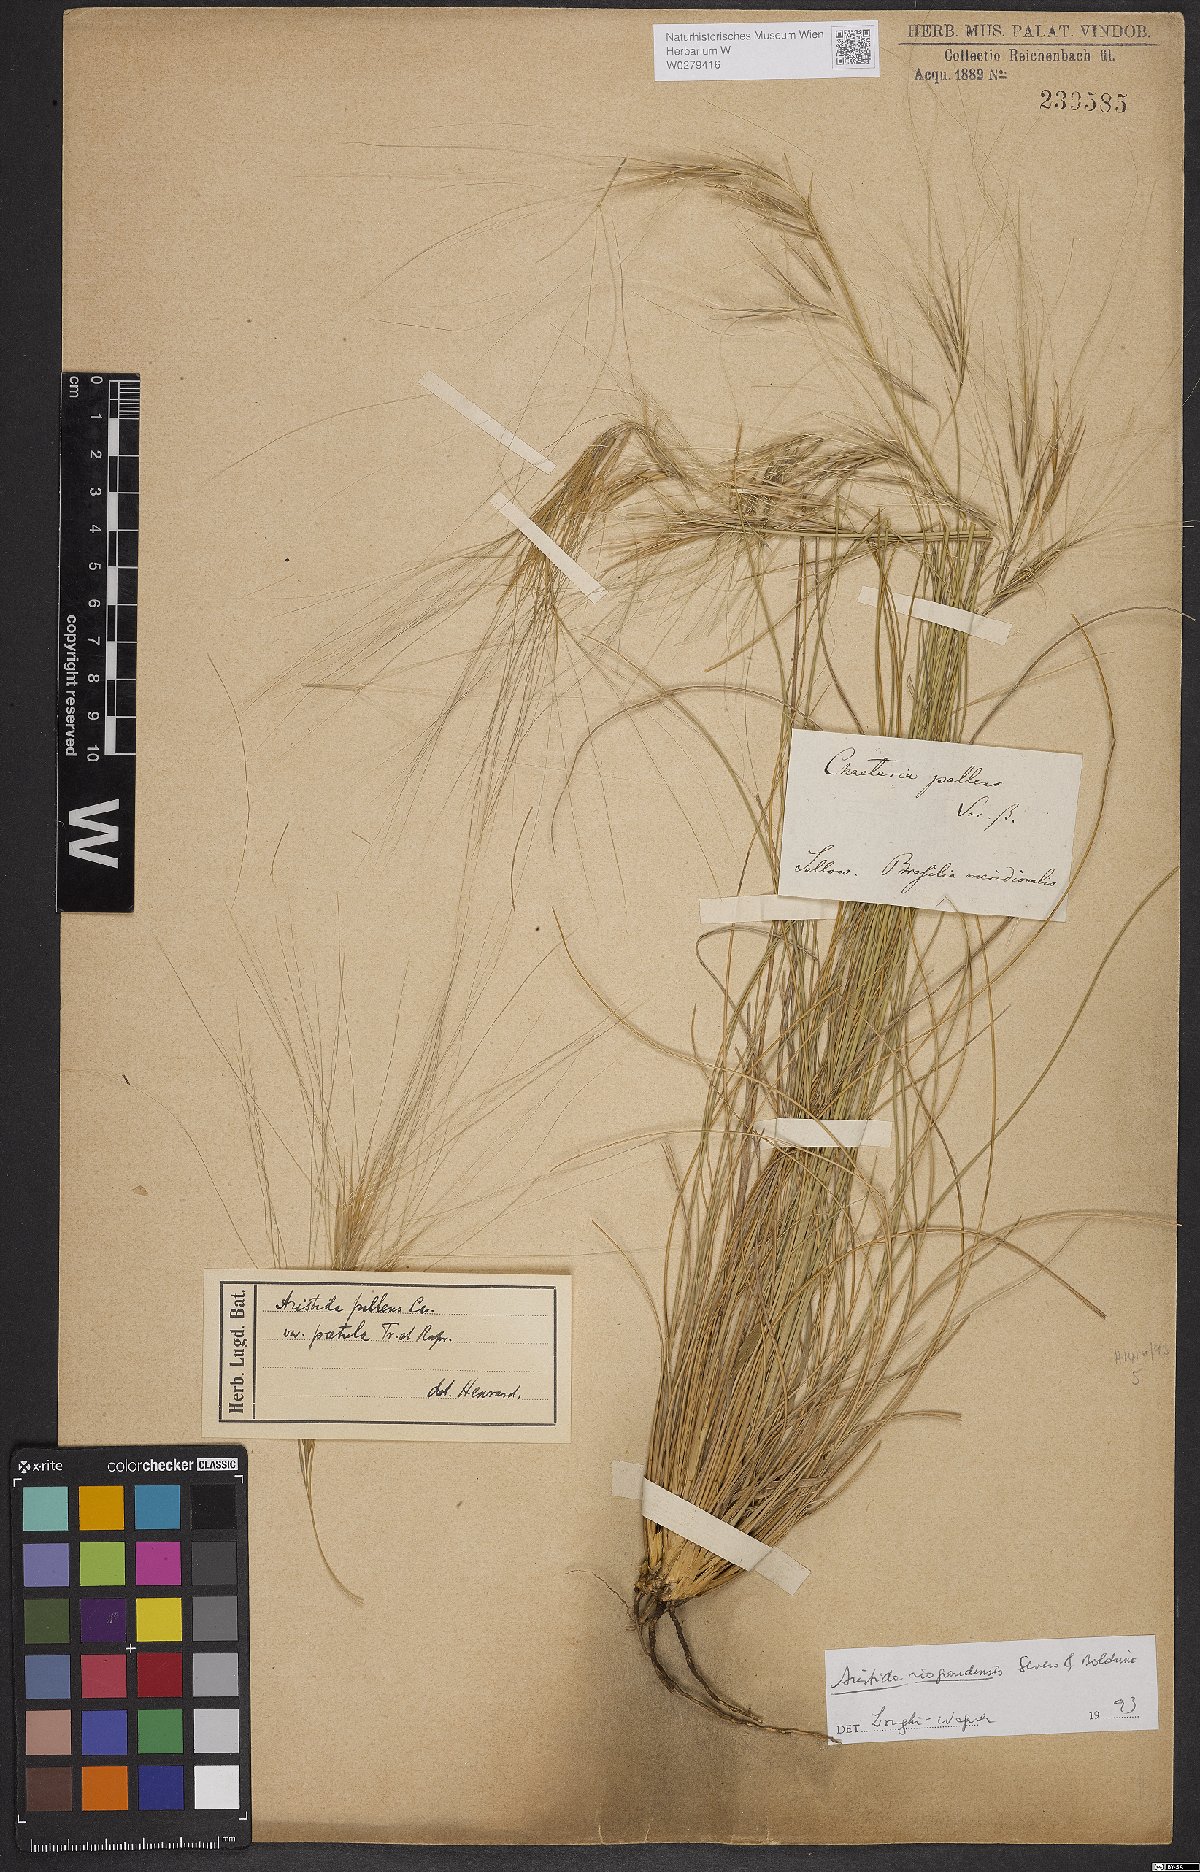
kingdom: Plantae
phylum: Tracheophyta
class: Liliopsida
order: Poales
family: Poaceae
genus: Aristida
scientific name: Aristida riograndensis
